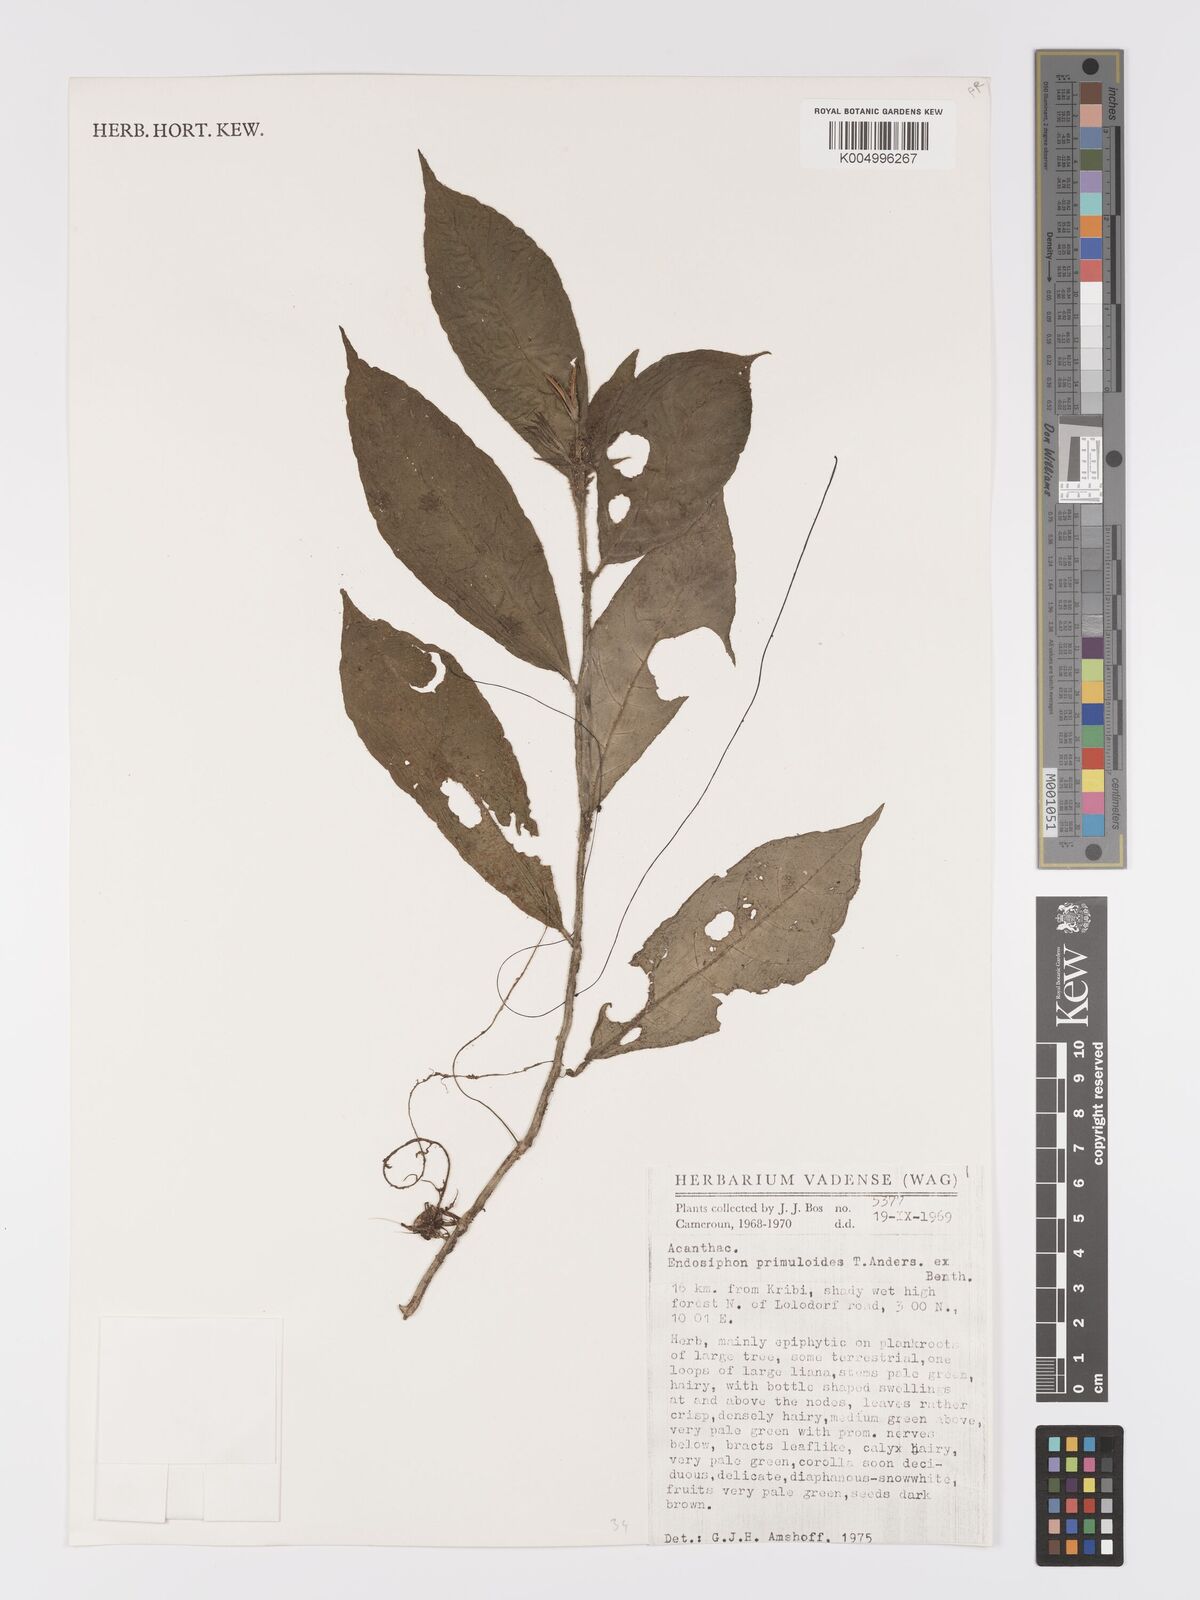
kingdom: Plantae
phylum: Tracheophyta
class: Magnoliopsida
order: Lamiales
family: Acanthaceae
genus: Ruellia
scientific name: Ruellia primuloides
